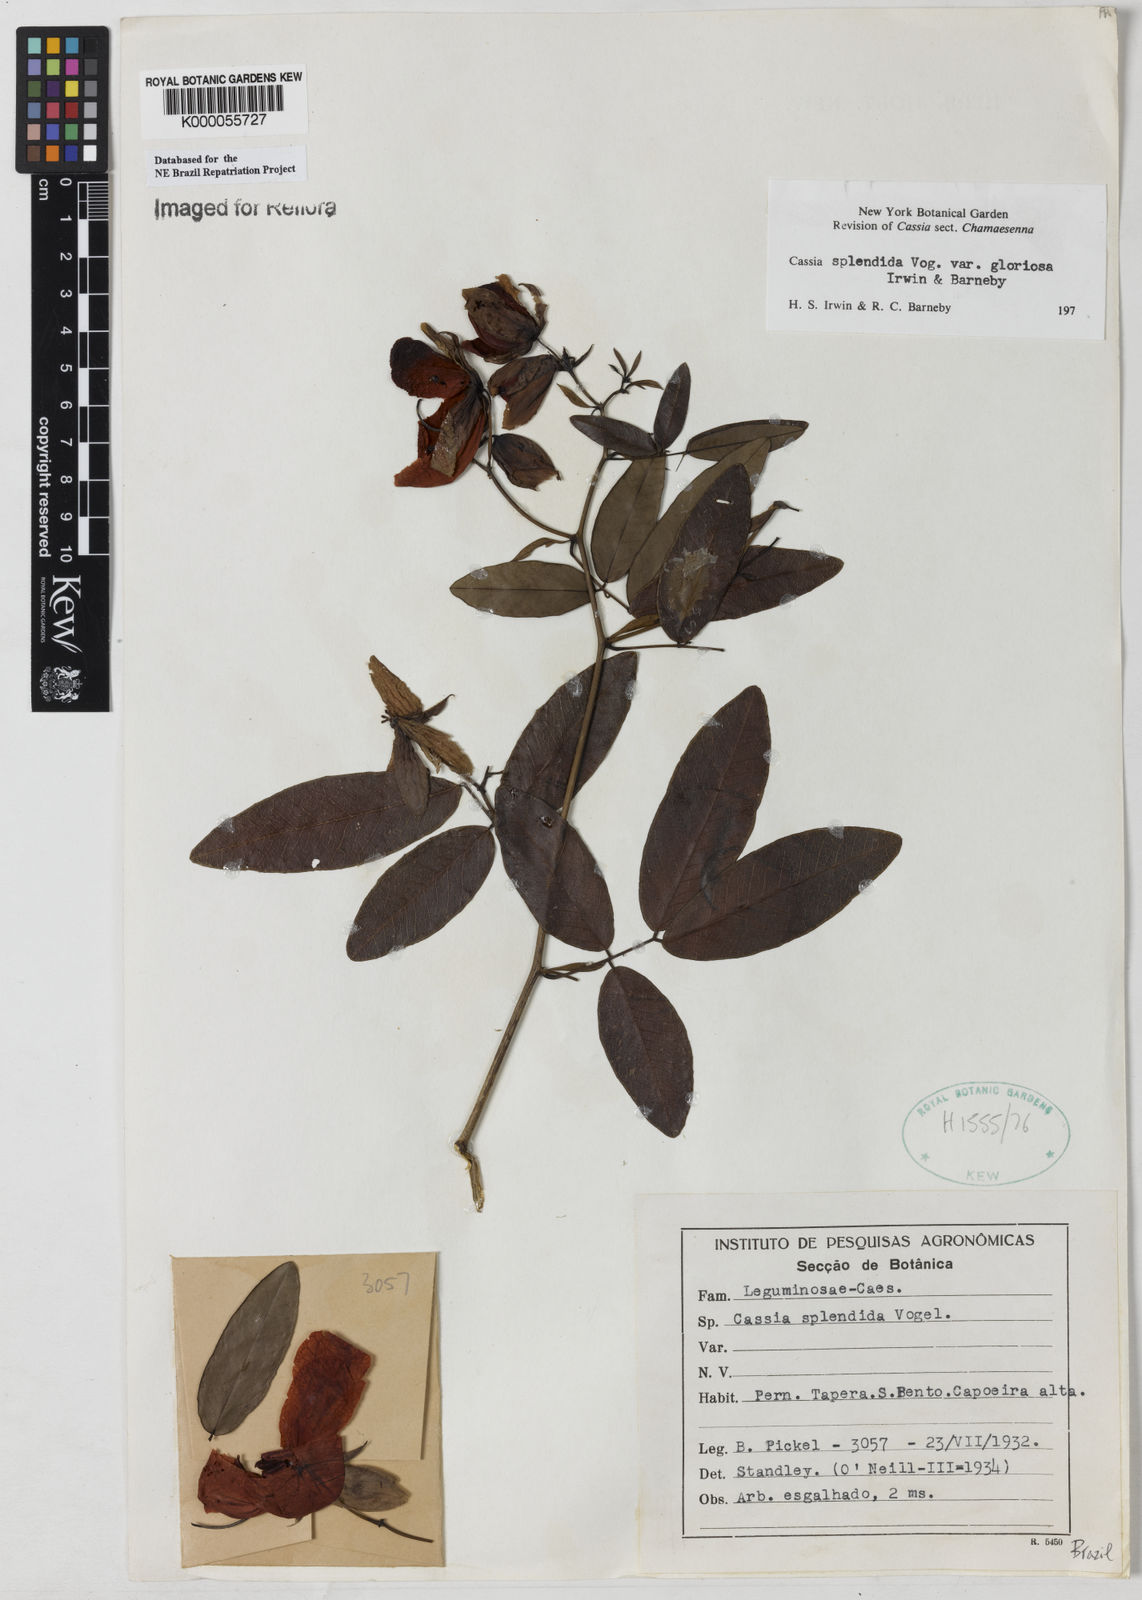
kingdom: Plantae
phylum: Tracheophyta
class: Magnoliopsida
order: Fabales
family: Fabaceae
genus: Senna
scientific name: Senna splendida
